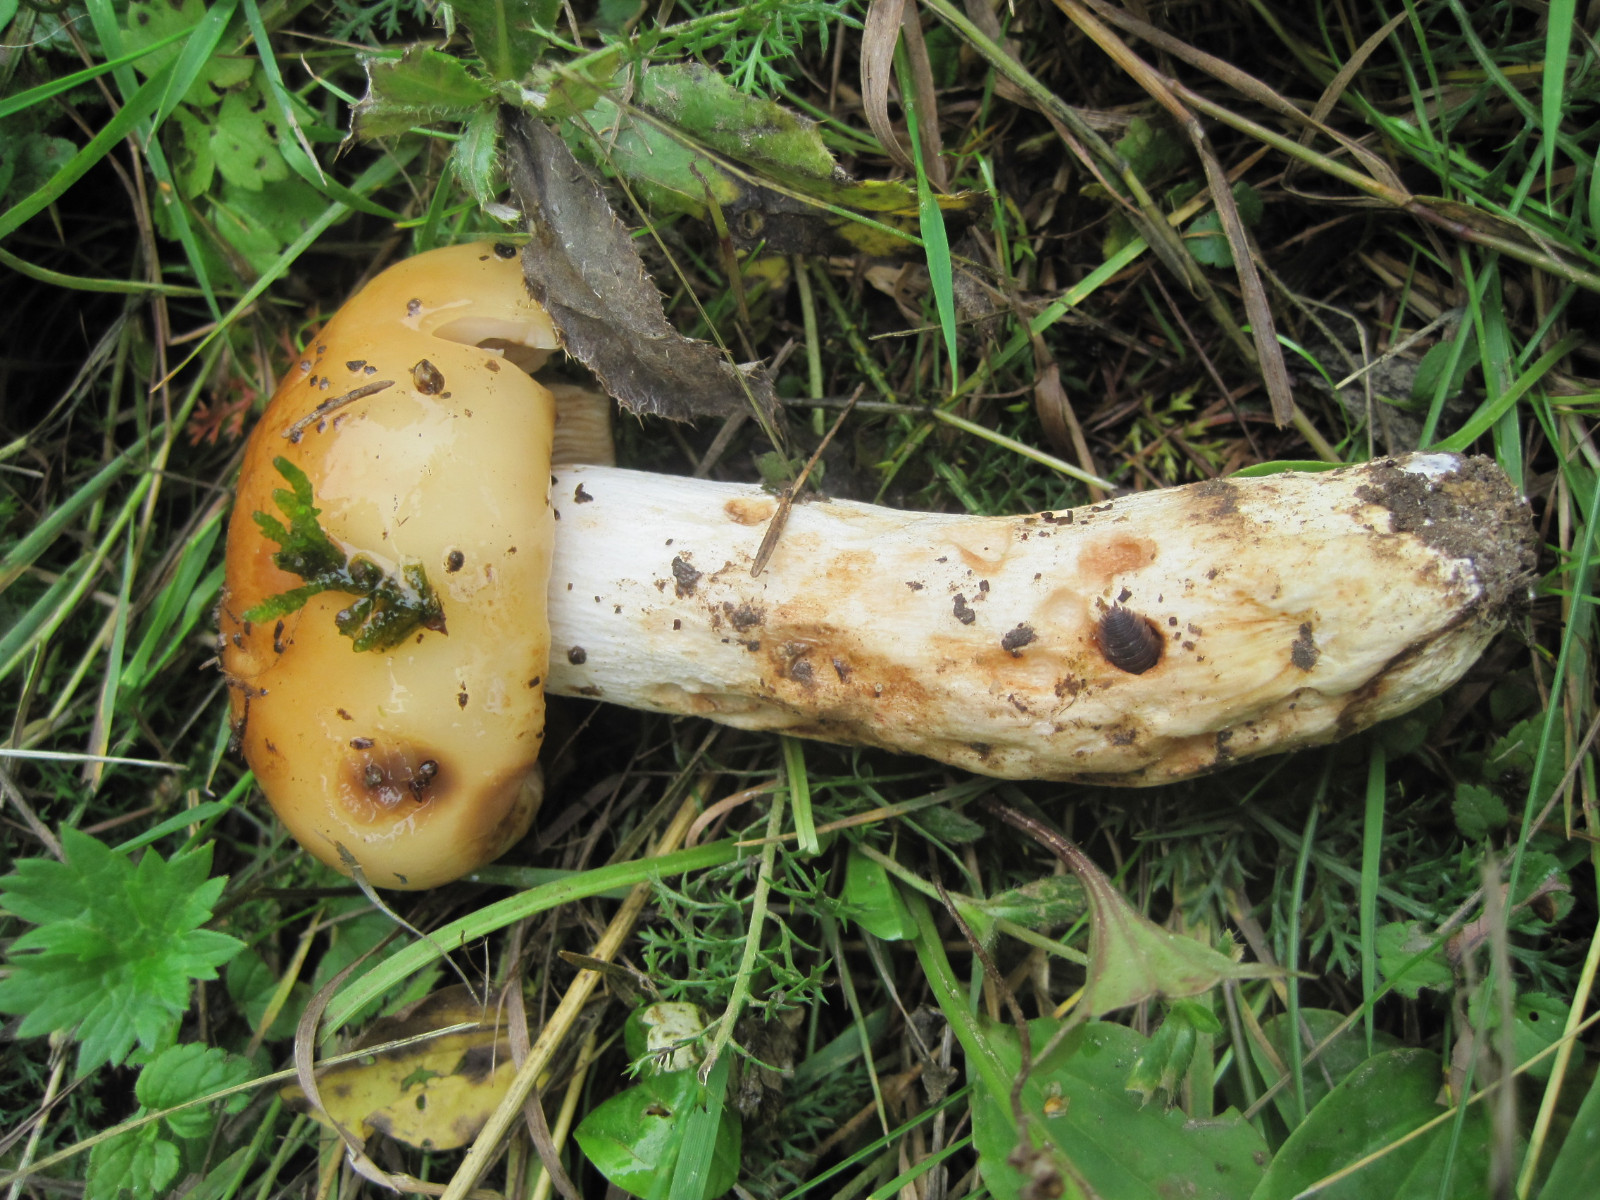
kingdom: Fungi
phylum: Basidiomycota
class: Agaricomycetes
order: Russulales
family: Russulaceae
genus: Russula
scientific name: Russula foetens
